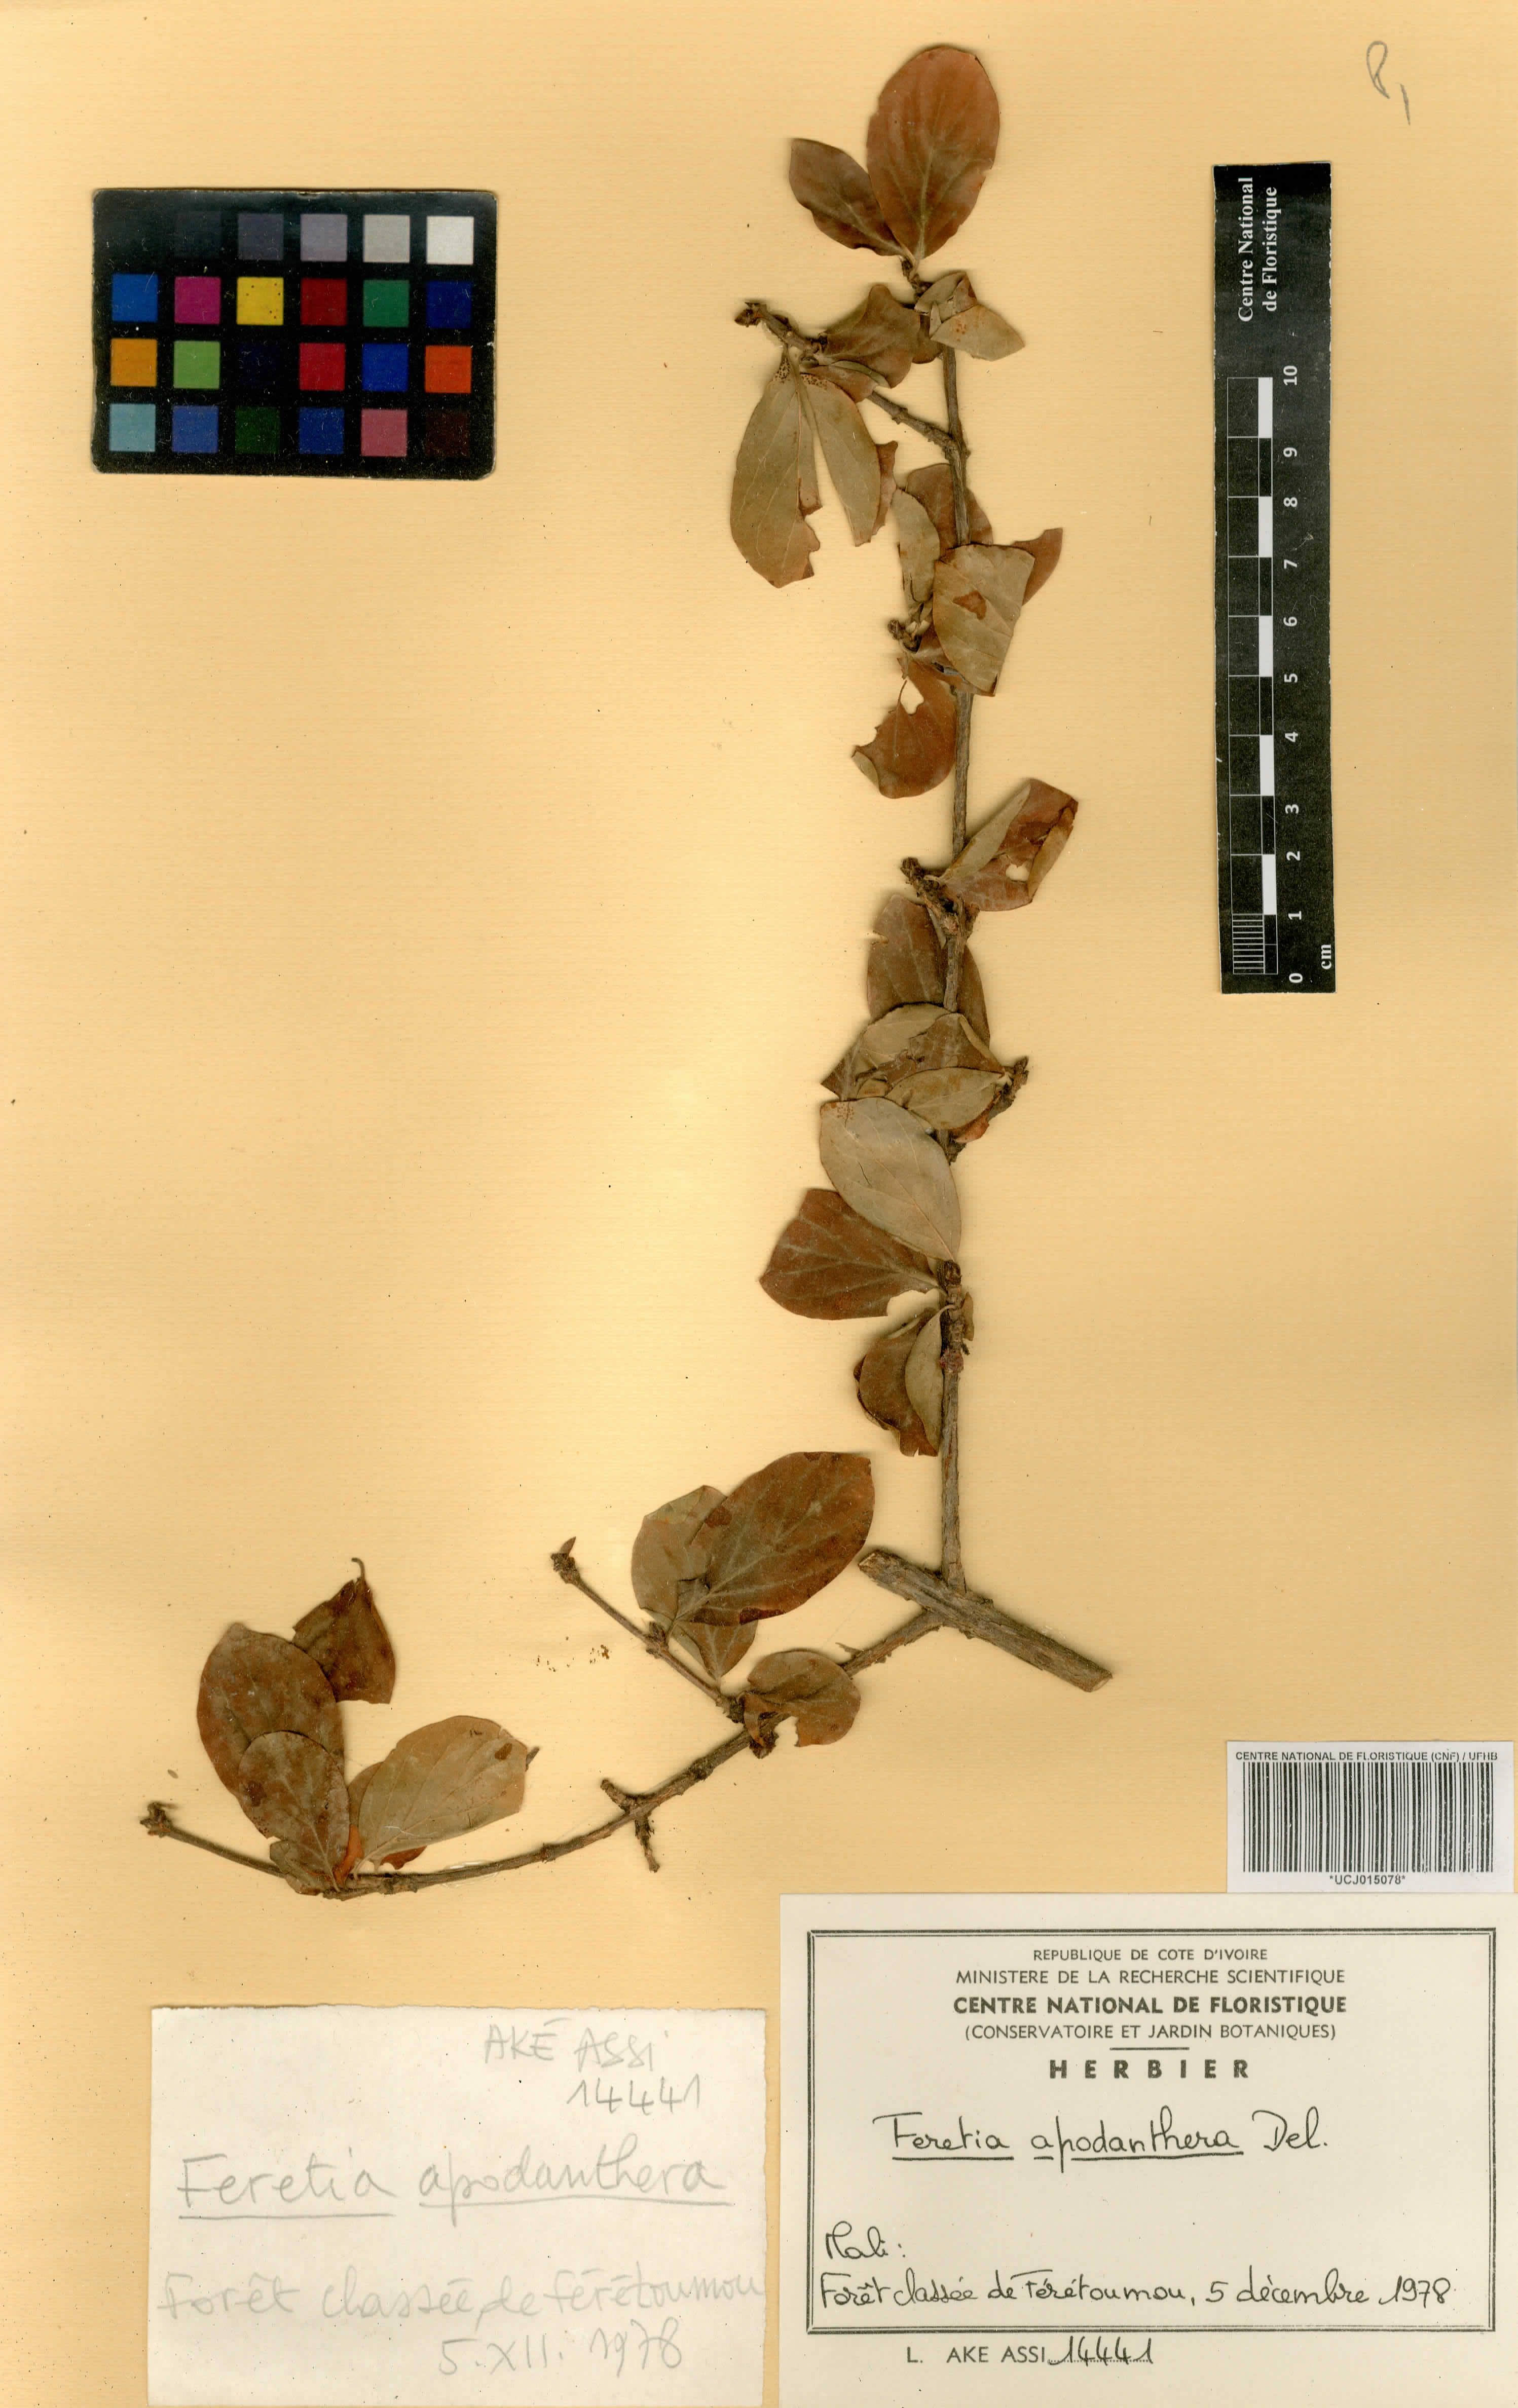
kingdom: Plantae
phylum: Tracheophyta
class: Magnoliopsida
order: Gentianales
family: Rubiaceae
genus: Feretia
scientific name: Feretia apodanthera
